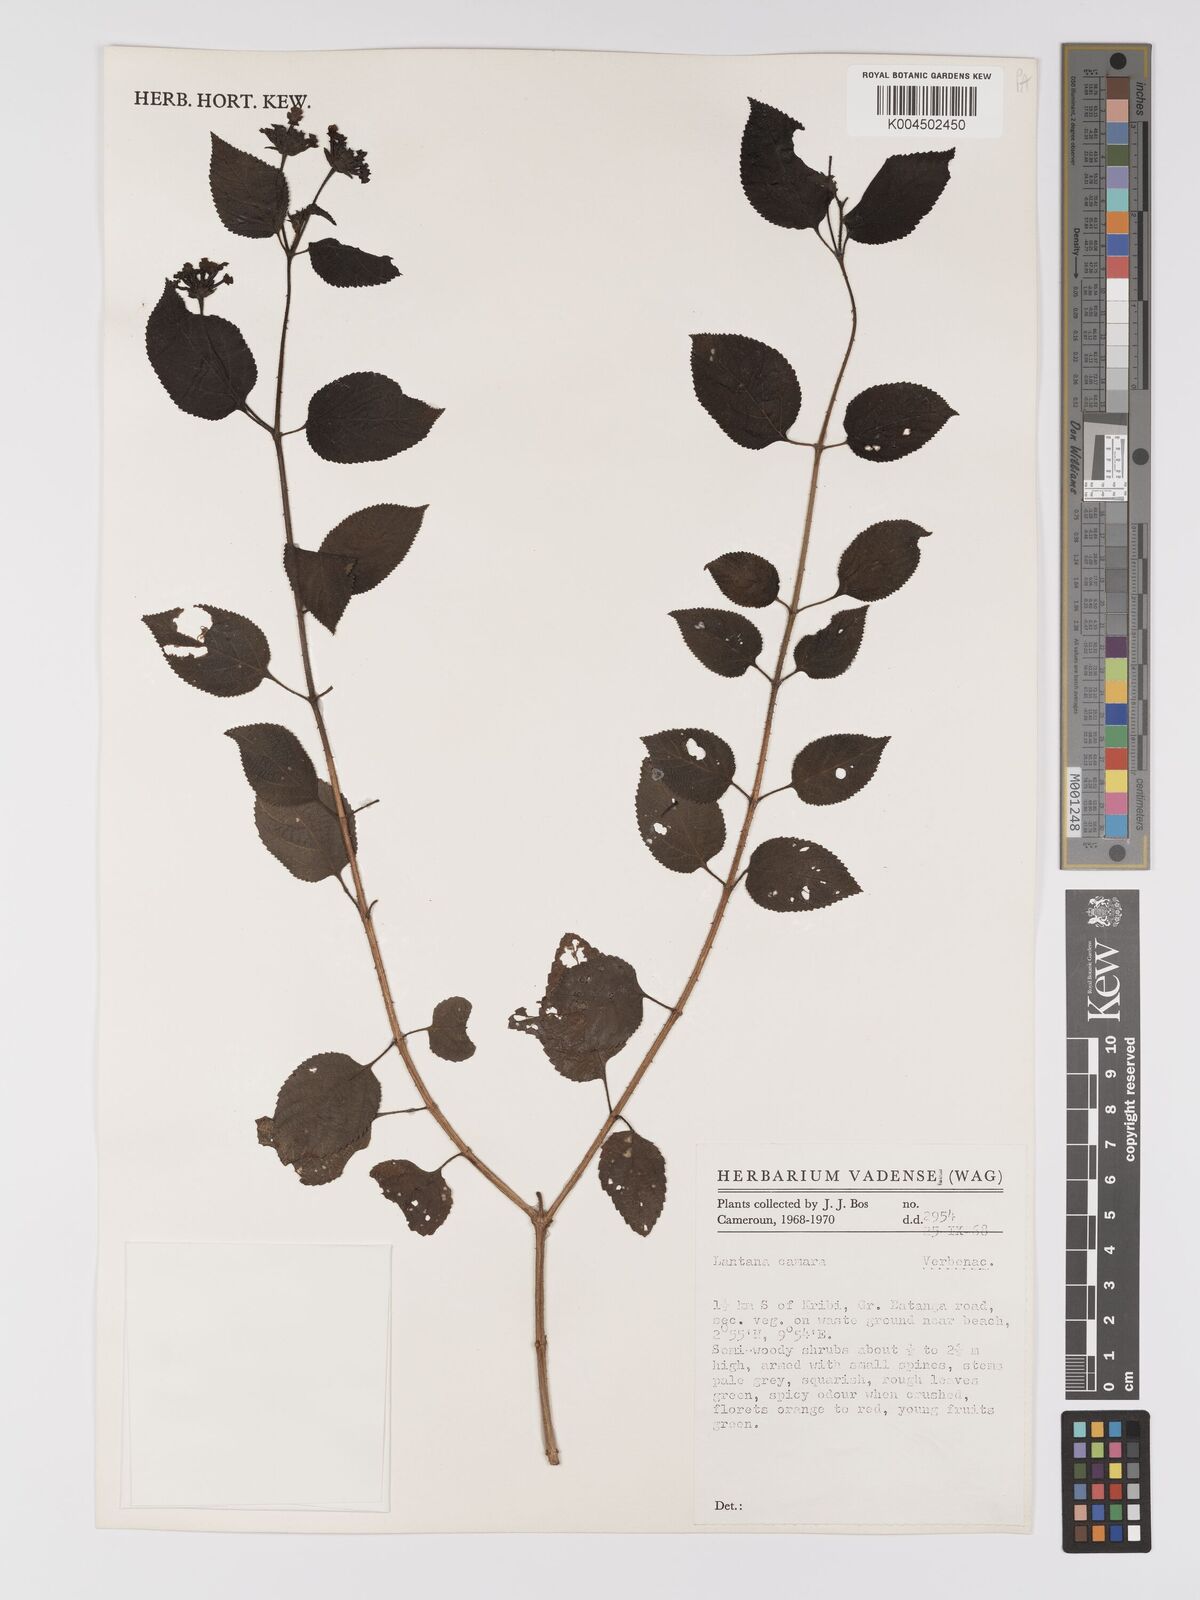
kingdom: Plantae
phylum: Tracheophyta
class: Magnoliopsida
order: Lamiales
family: Verbenaceae
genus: Lantana
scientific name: Lantana camara
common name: Lantana
